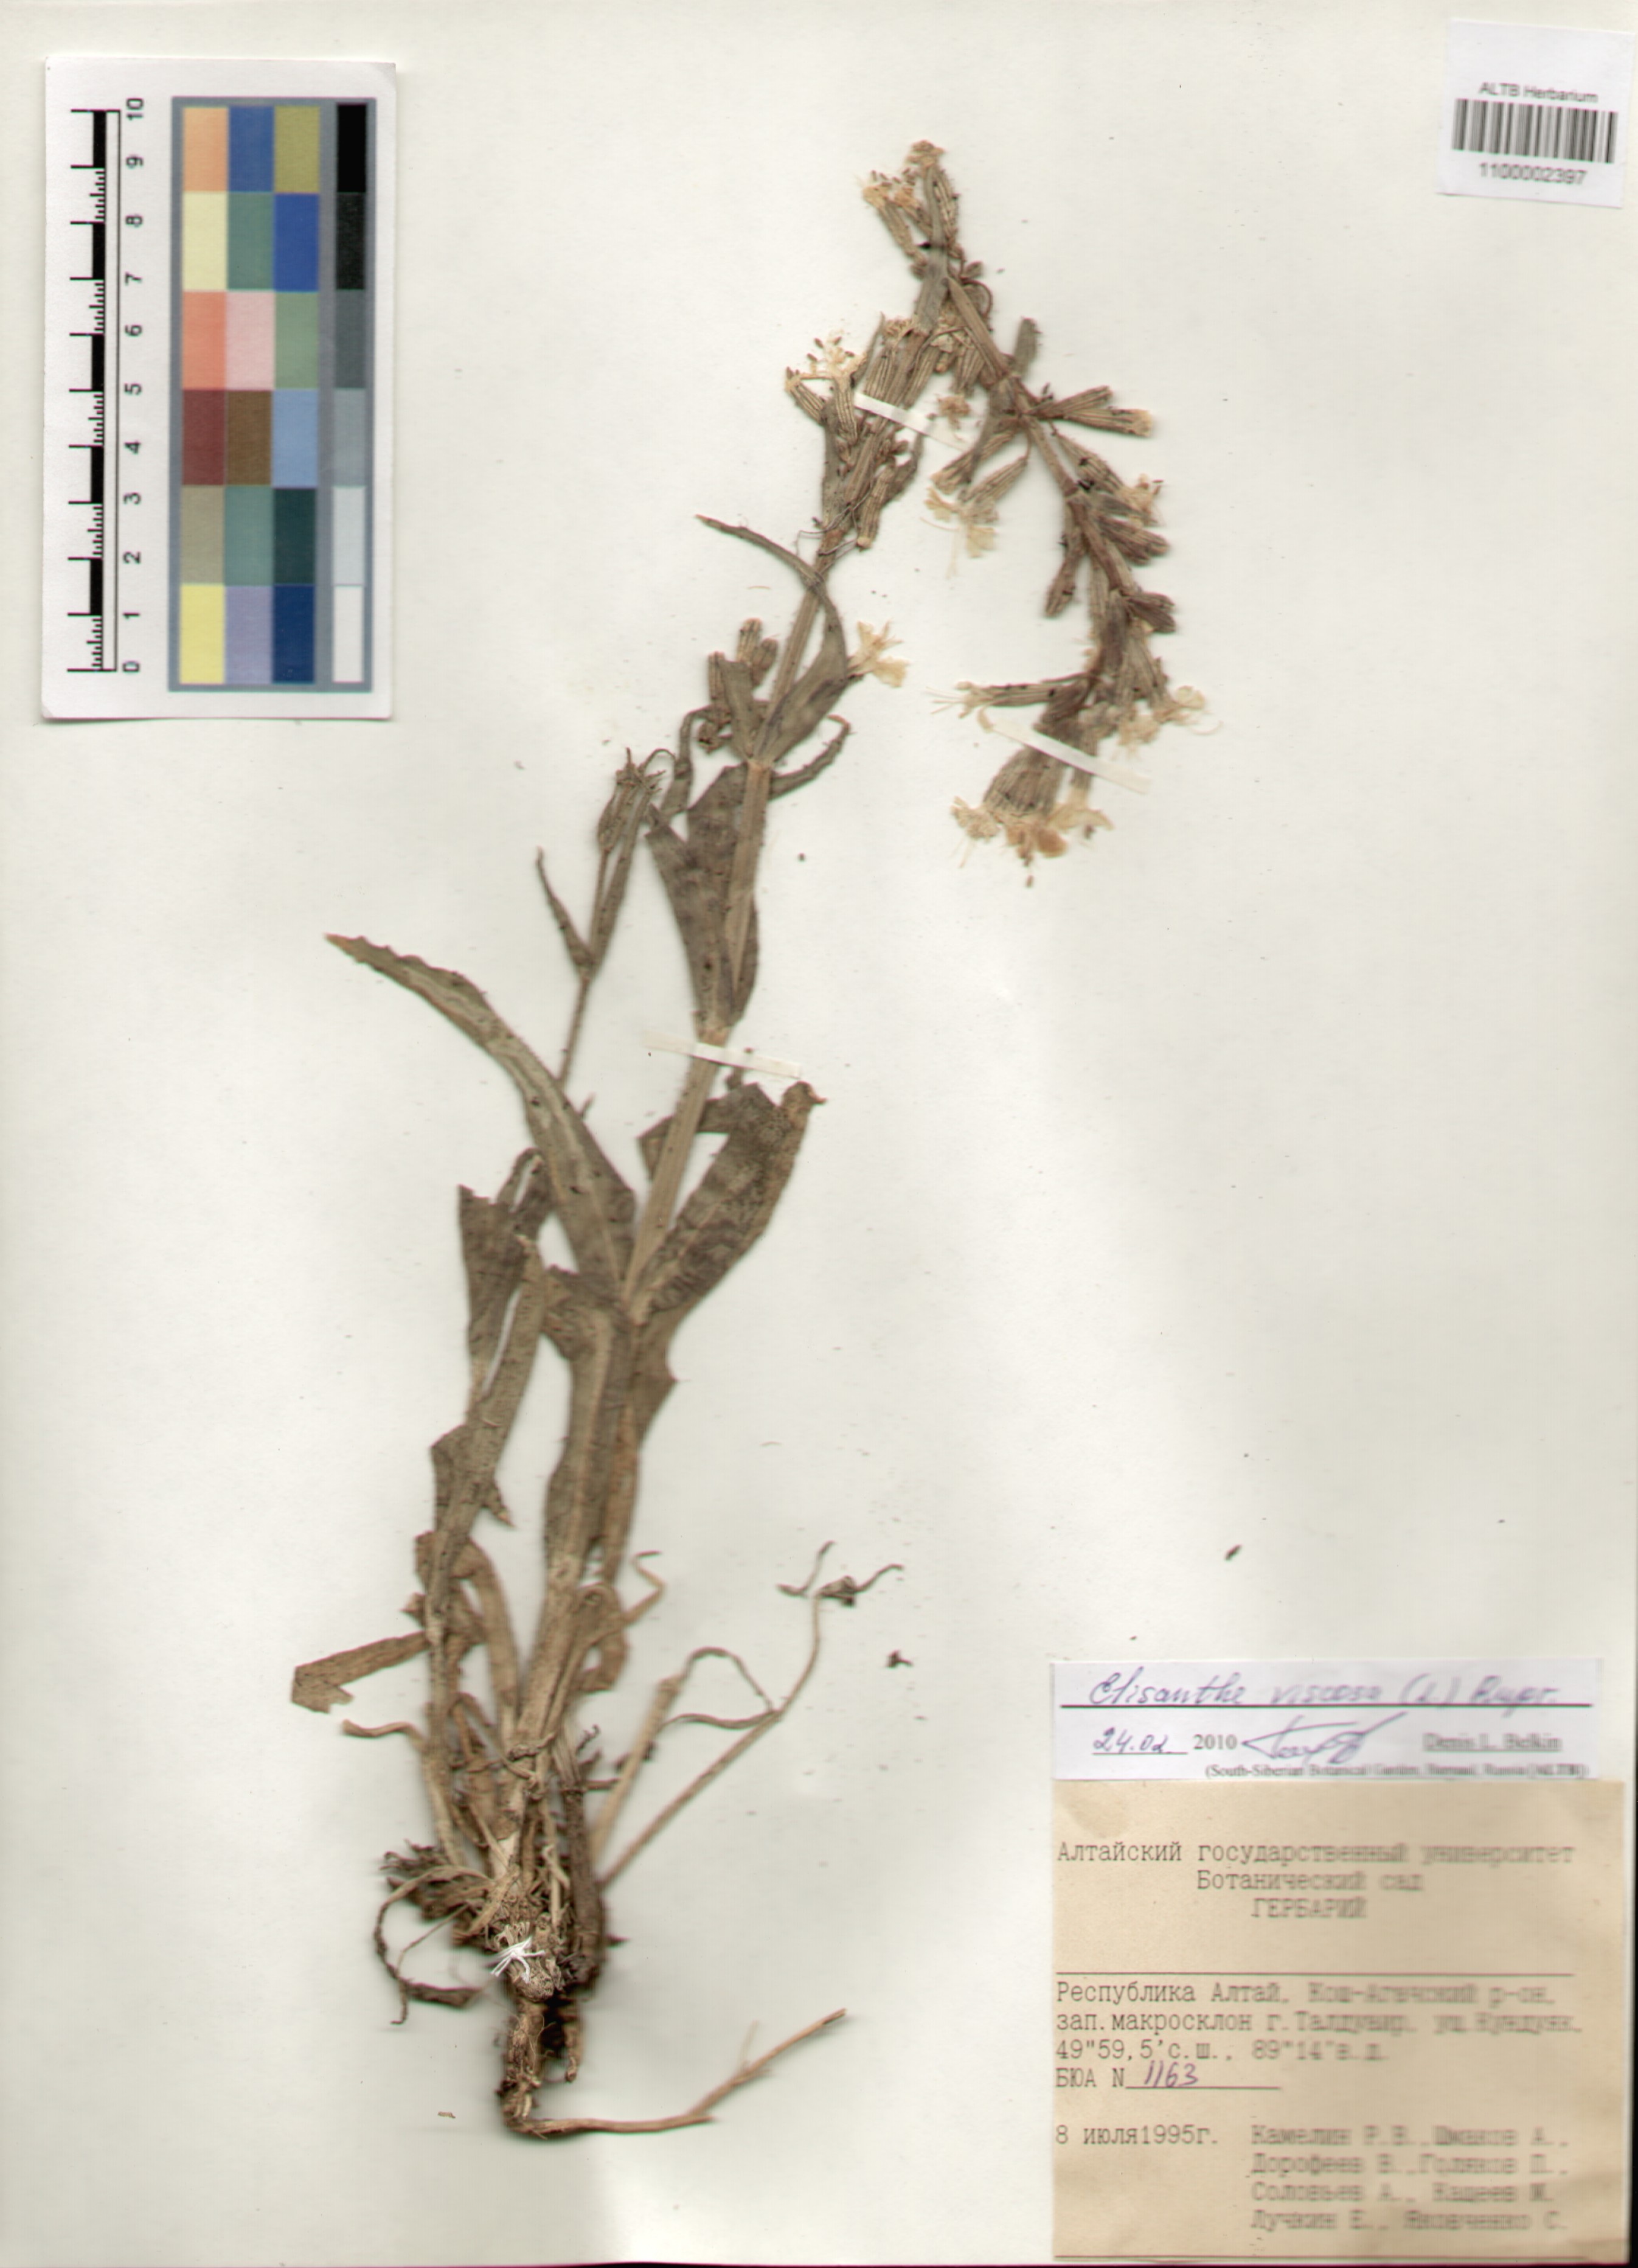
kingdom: Plantae
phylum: Tracheophyta
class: Magnoliopsida
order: Caryophyllales
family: Caryophyllaceae
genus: Silene
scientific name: Silene viscosa
